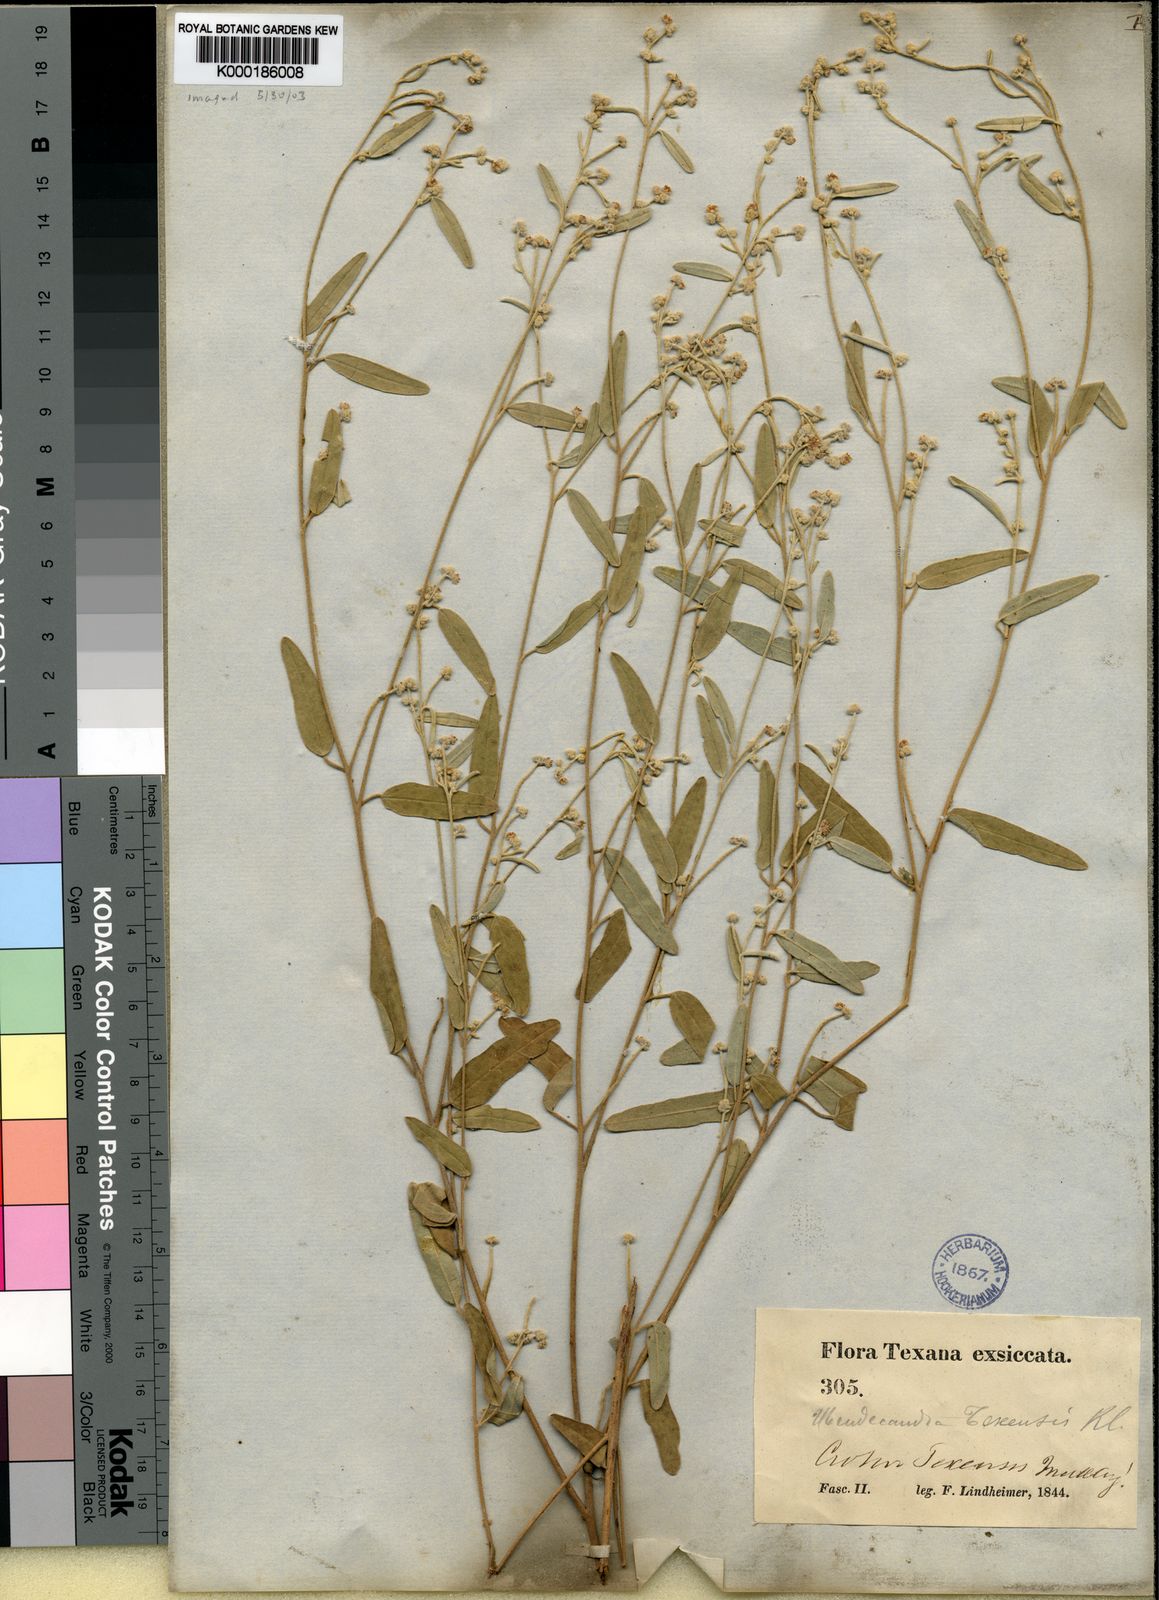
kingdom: Plantae
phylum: Tracheophyta
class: Magnoliopsida
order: Malpighiales
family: Euphorbiaceae
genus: Croton
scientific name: Croton
